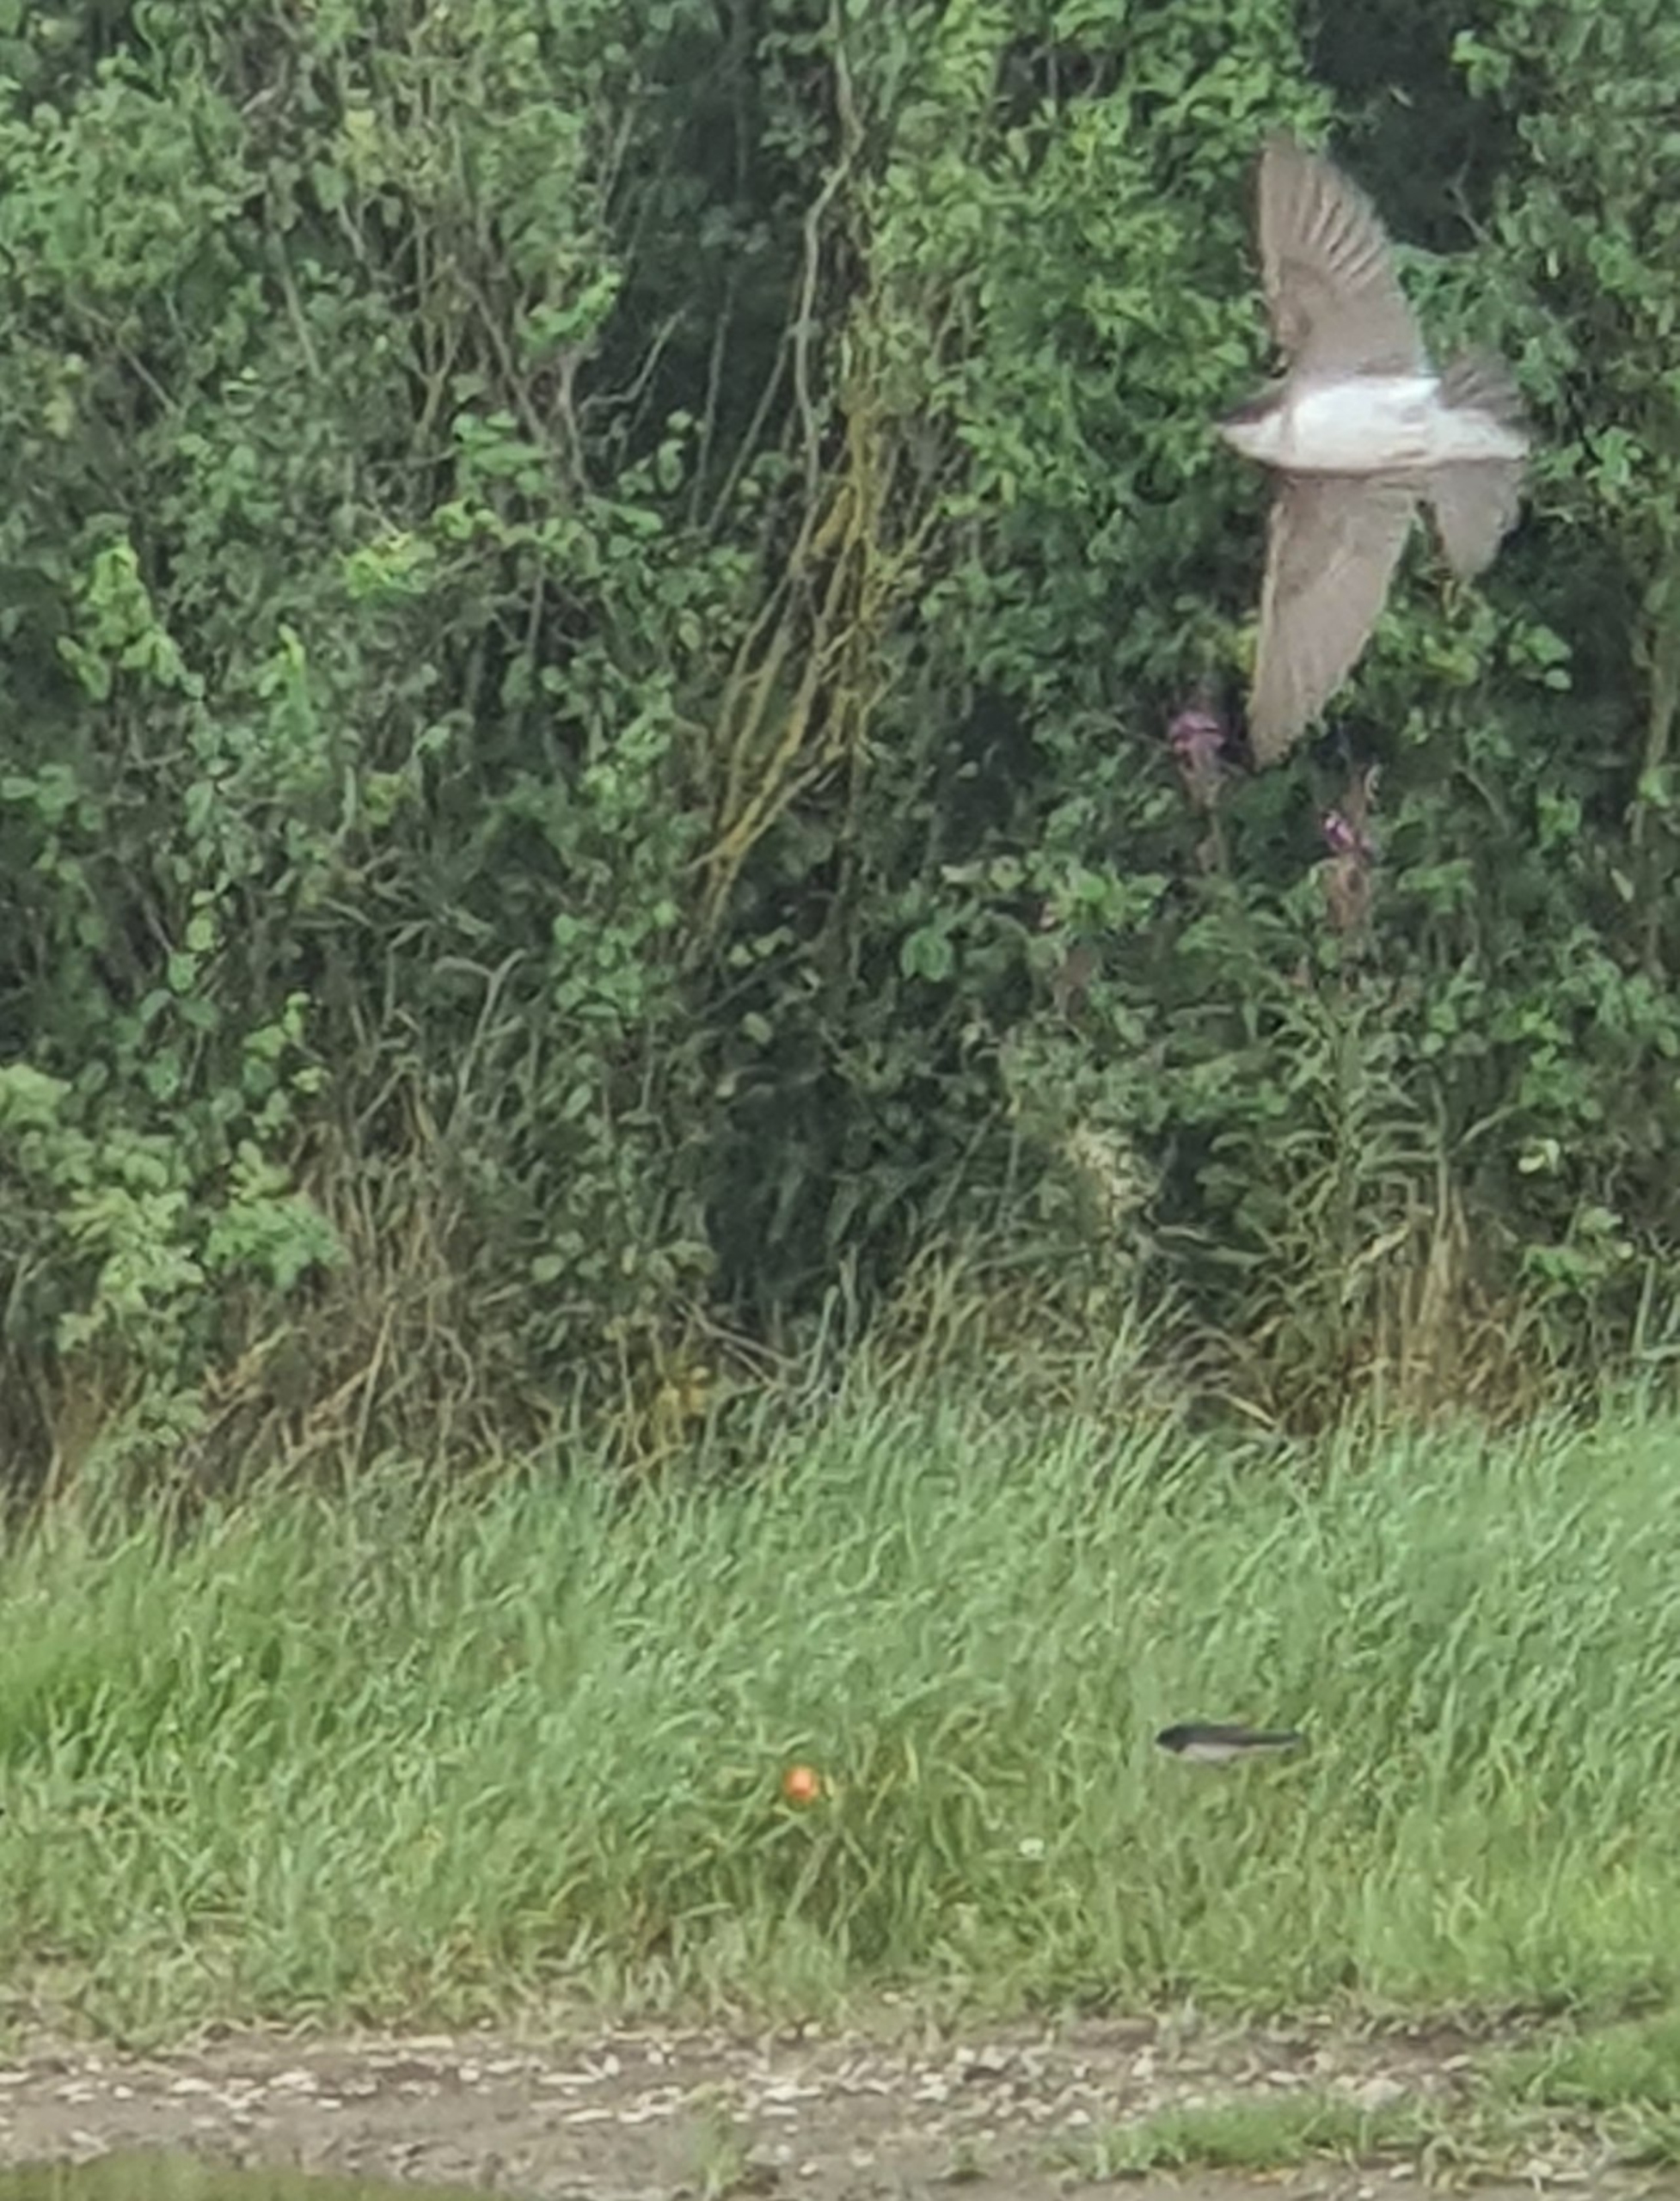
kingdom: Animalia
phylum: Chordata
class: Aves
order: Passeriformes
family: Hirundinidae
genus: Delichon
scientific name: Delichon urbicum
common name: Bysvale
